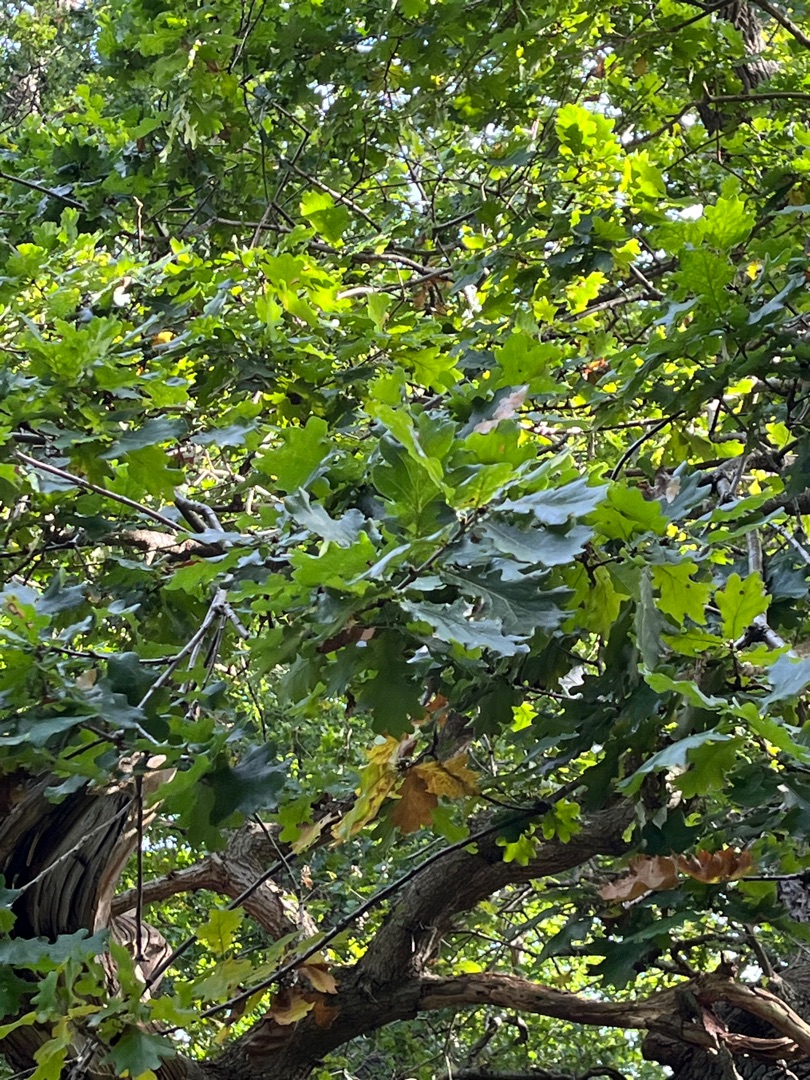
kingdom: Plantae
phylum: Tracheophyta
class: Magnoliopsida
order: Fagales
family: Fagaceae
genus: Quercus
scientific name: Quercus robur
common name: Stilk-eg/almindelig eg
